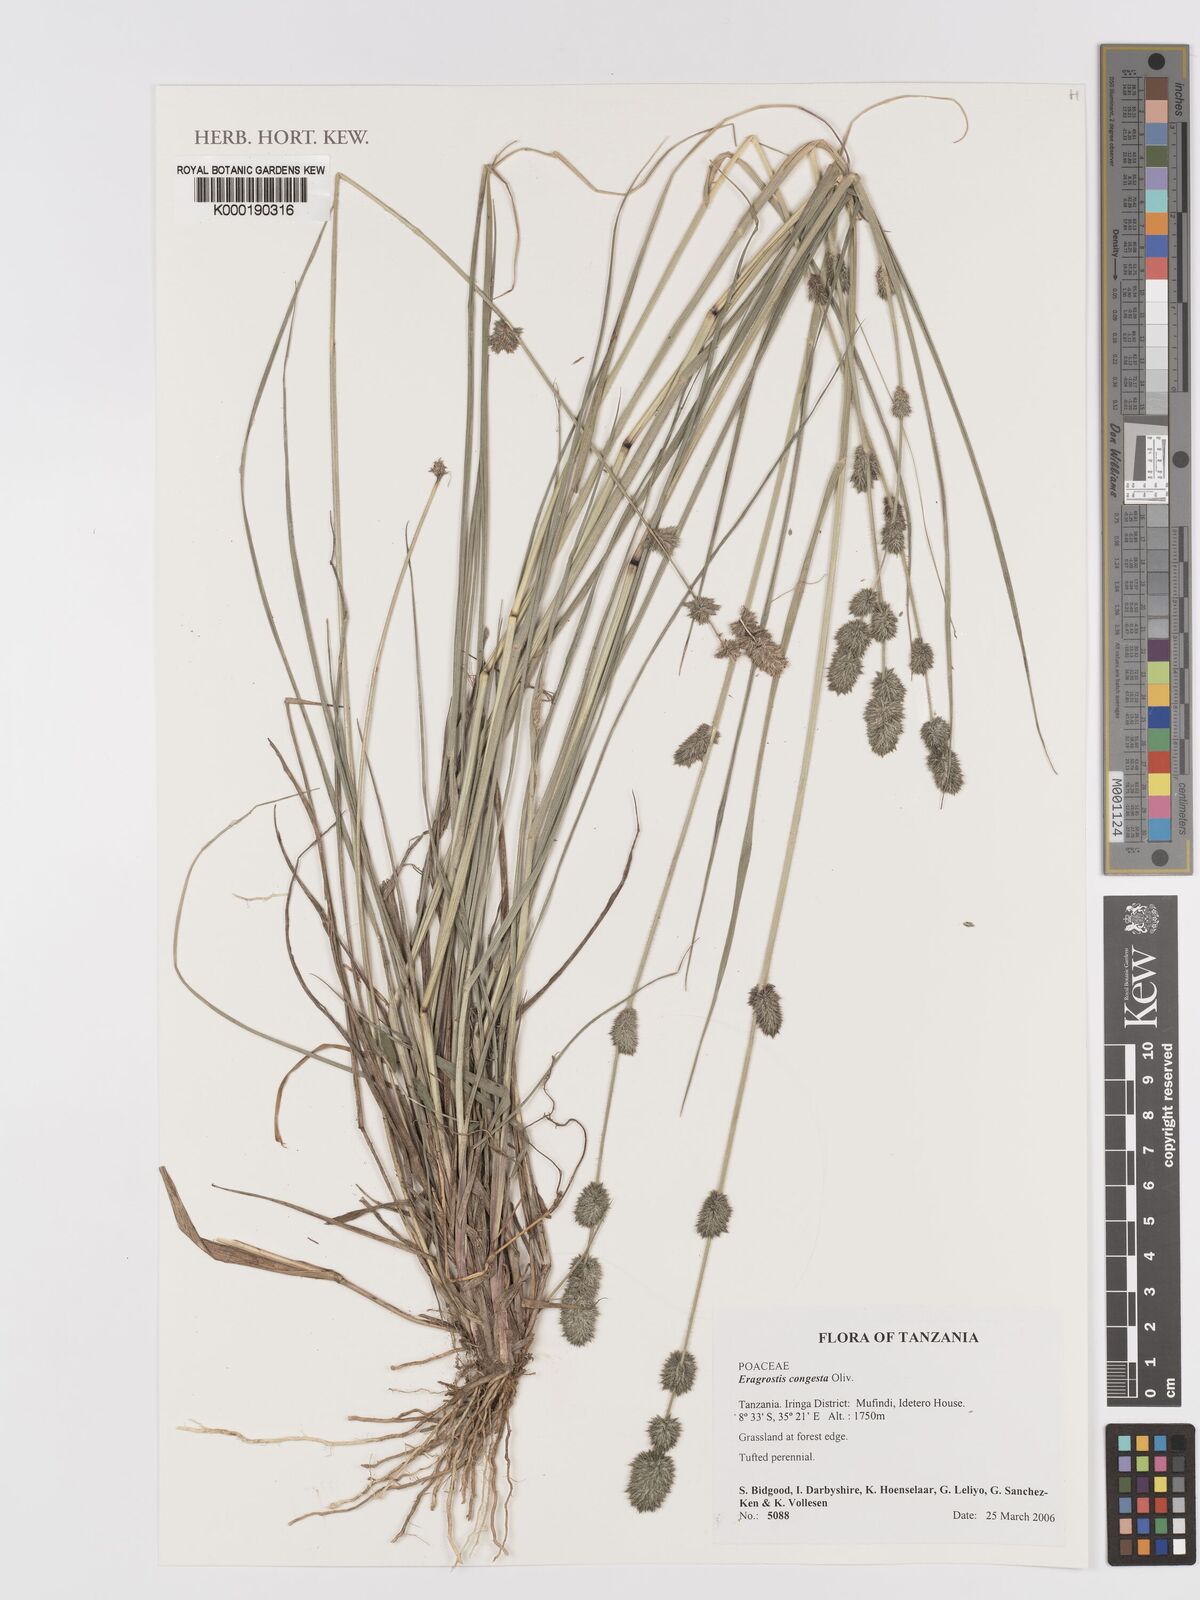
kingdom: Plantae
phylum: Tracheophyta
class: Liliopsida
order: Poales
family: Poaceae
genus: Eragrostis
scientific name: Eragrostis congesta
